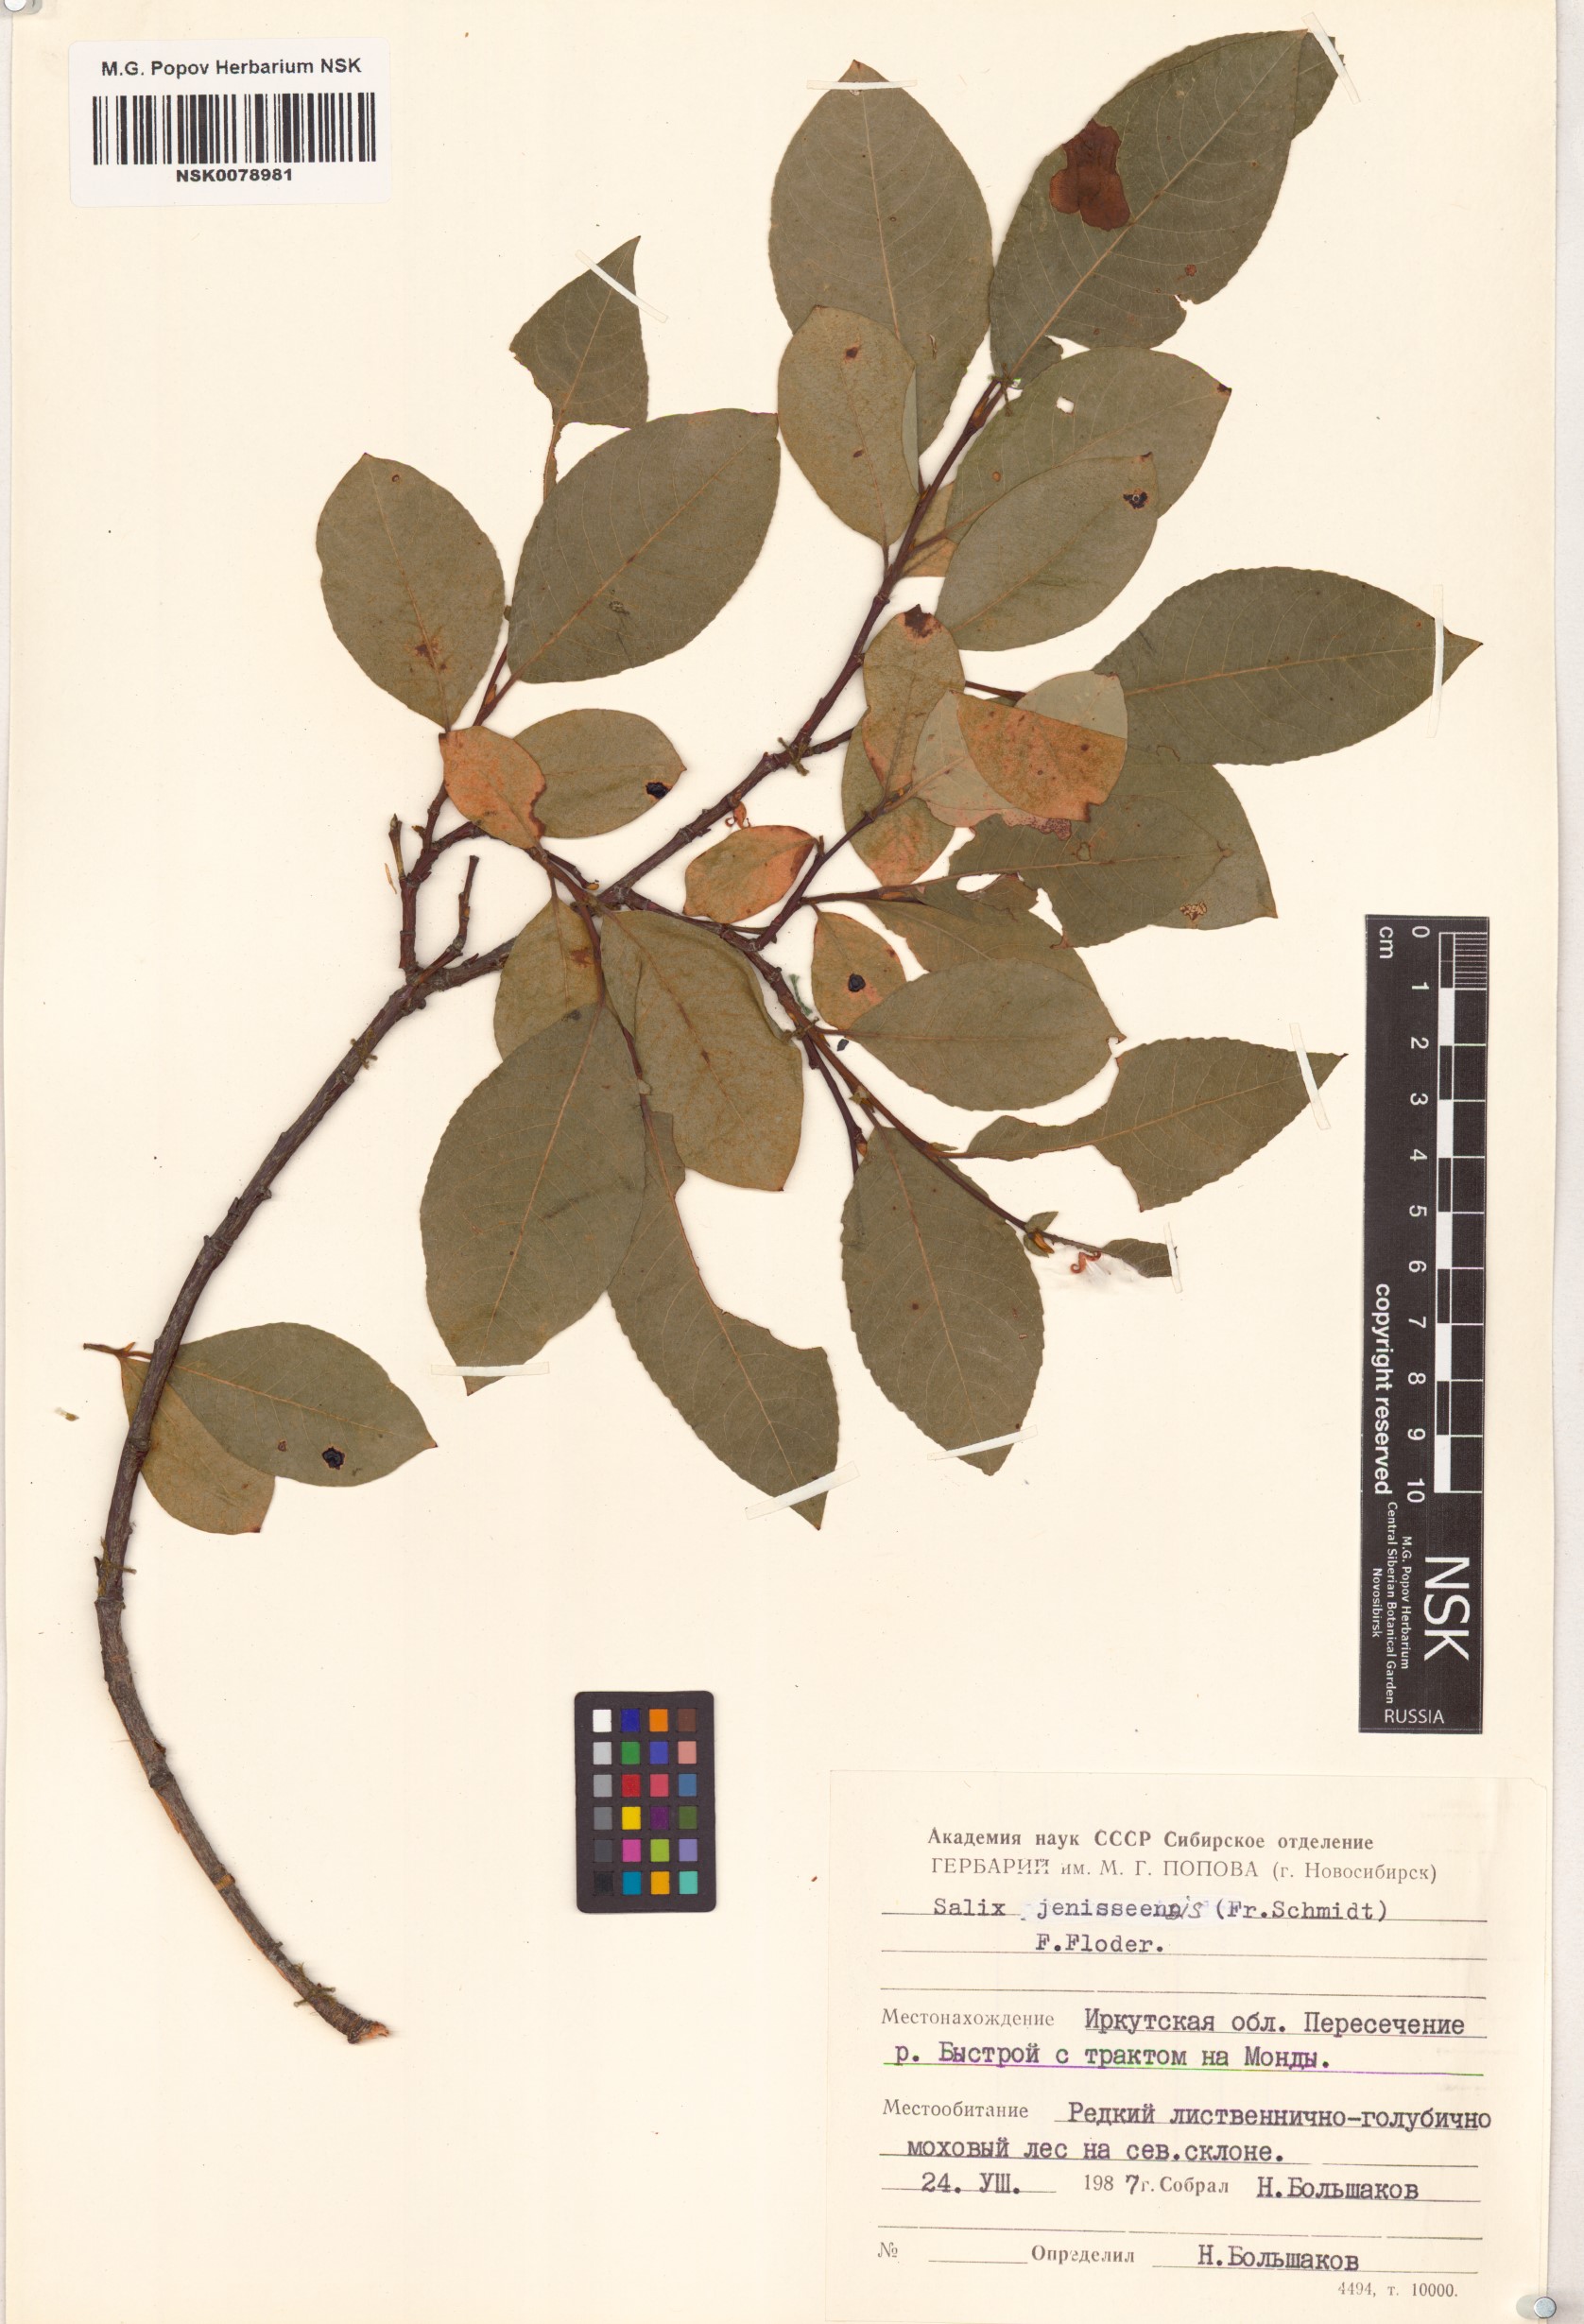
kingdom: Plantae
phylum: Tracheophyta
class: Magnoliopsida
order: Malpighiales
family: Salicaceae
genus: Salix
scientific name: Salix jenisseensis
